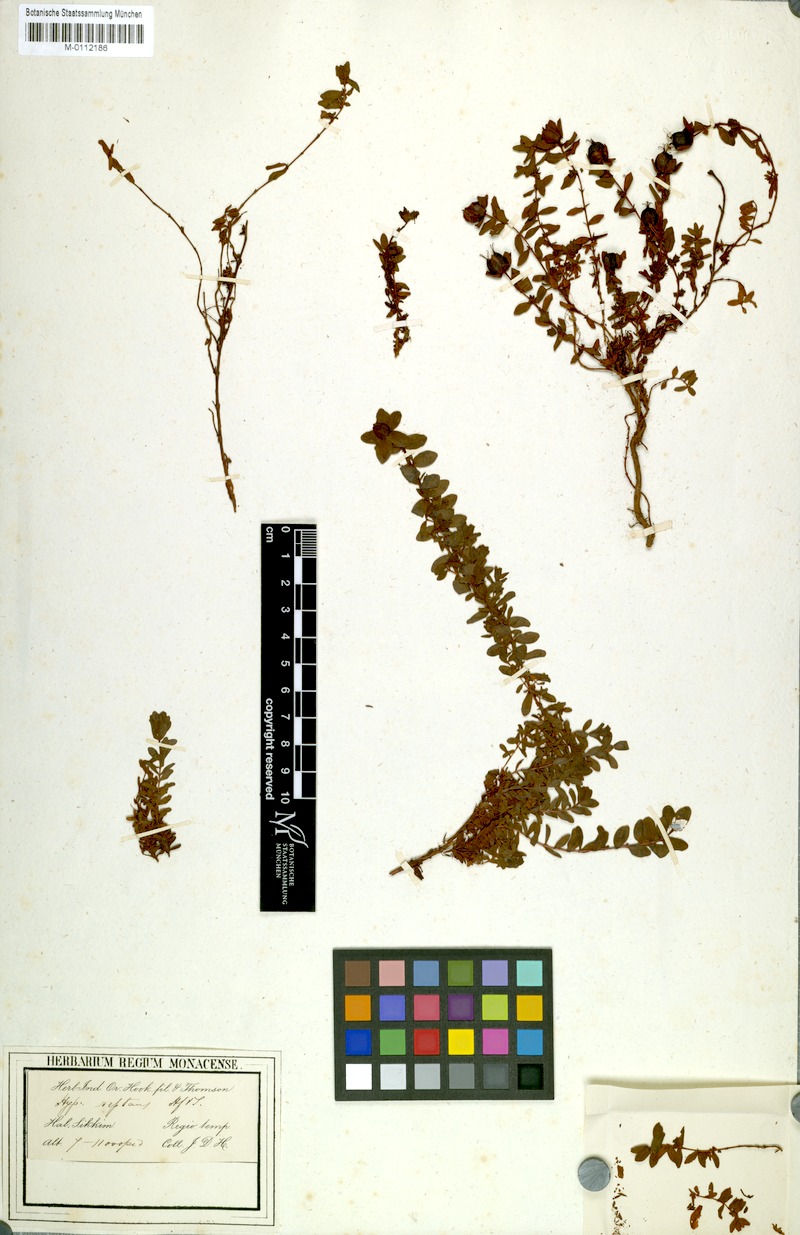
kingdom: Plantae
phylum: Tracheophyta
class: Magnoliopsida
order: Malpighiales
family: Hypericaceae
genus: Hypericum
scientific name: Hypericum reptans
